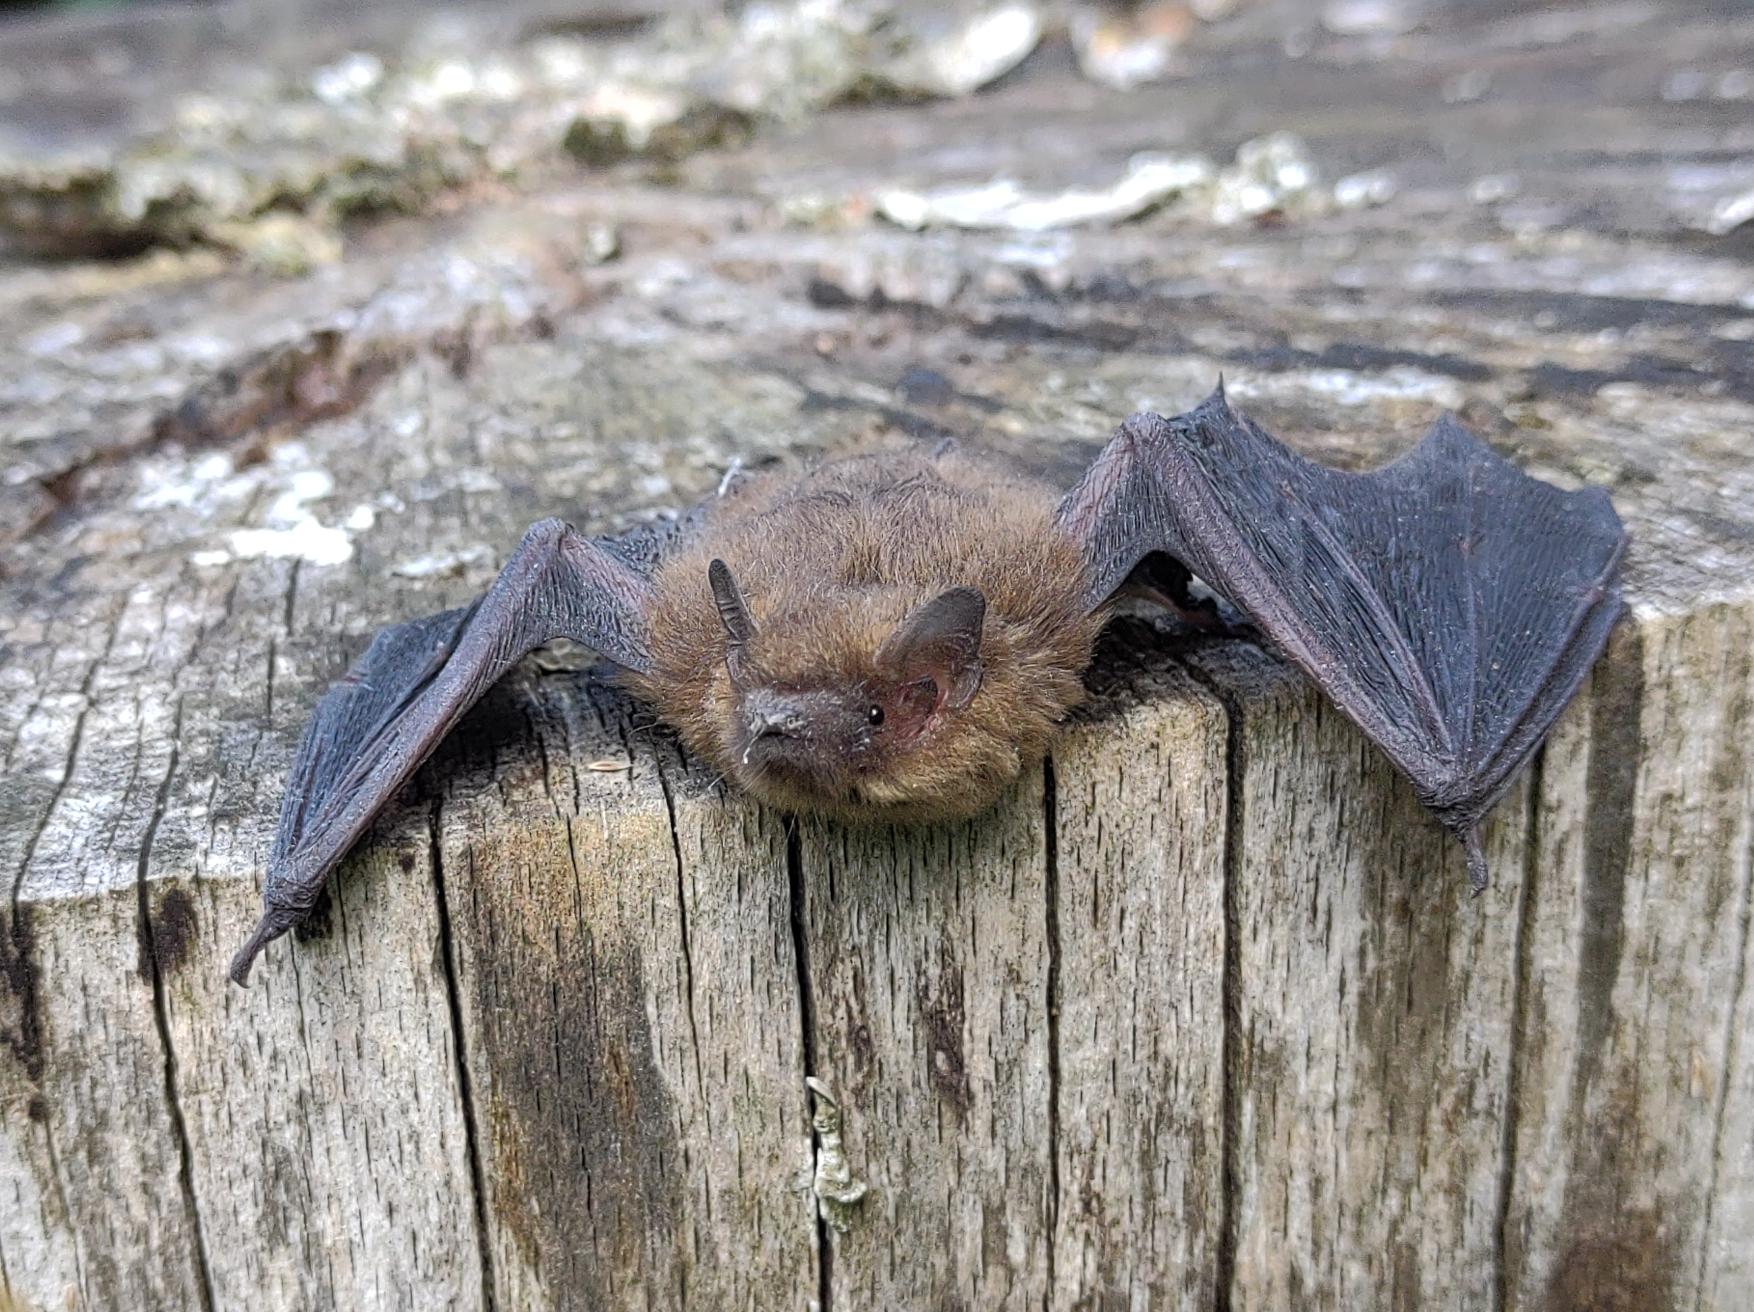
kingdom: Animalia
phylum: Chordata
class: Mammalia
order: Chiroptera
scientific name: Chiroptera
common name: Flagermus
